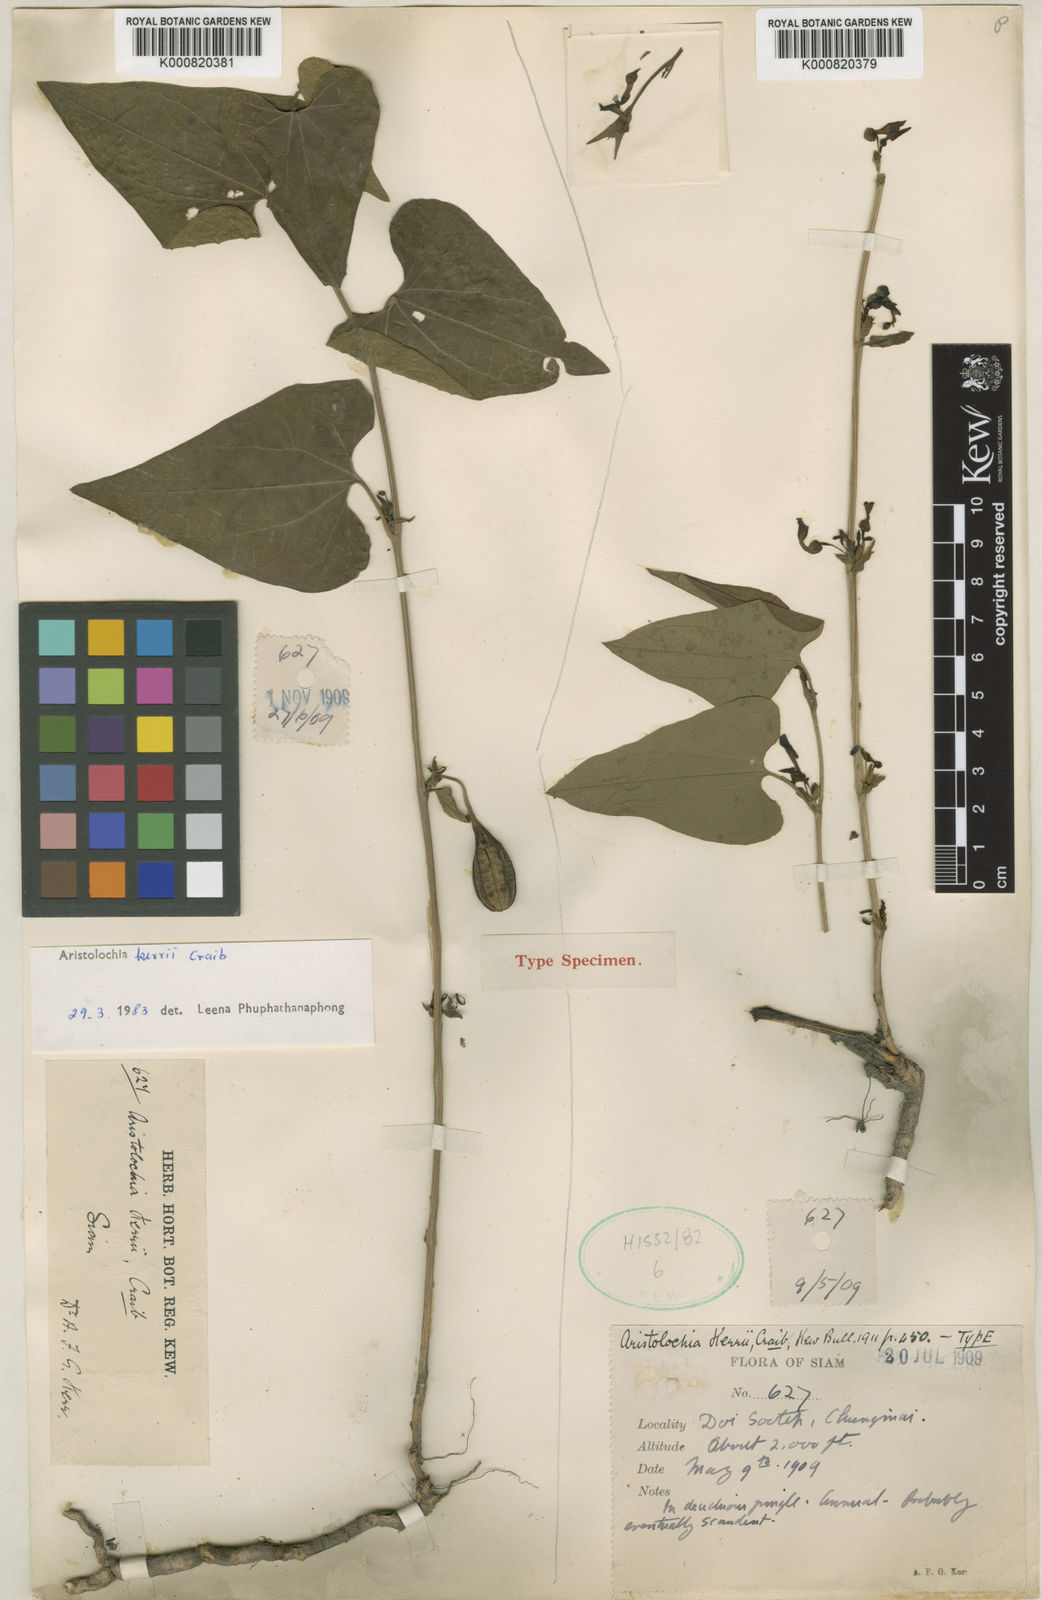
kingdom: Plantae
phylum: Tracheophyta
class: Magnoliopsida
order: Piperales
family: Aristolochiaceae
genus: Aristolochia
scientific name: Aristolochia cambodiana
